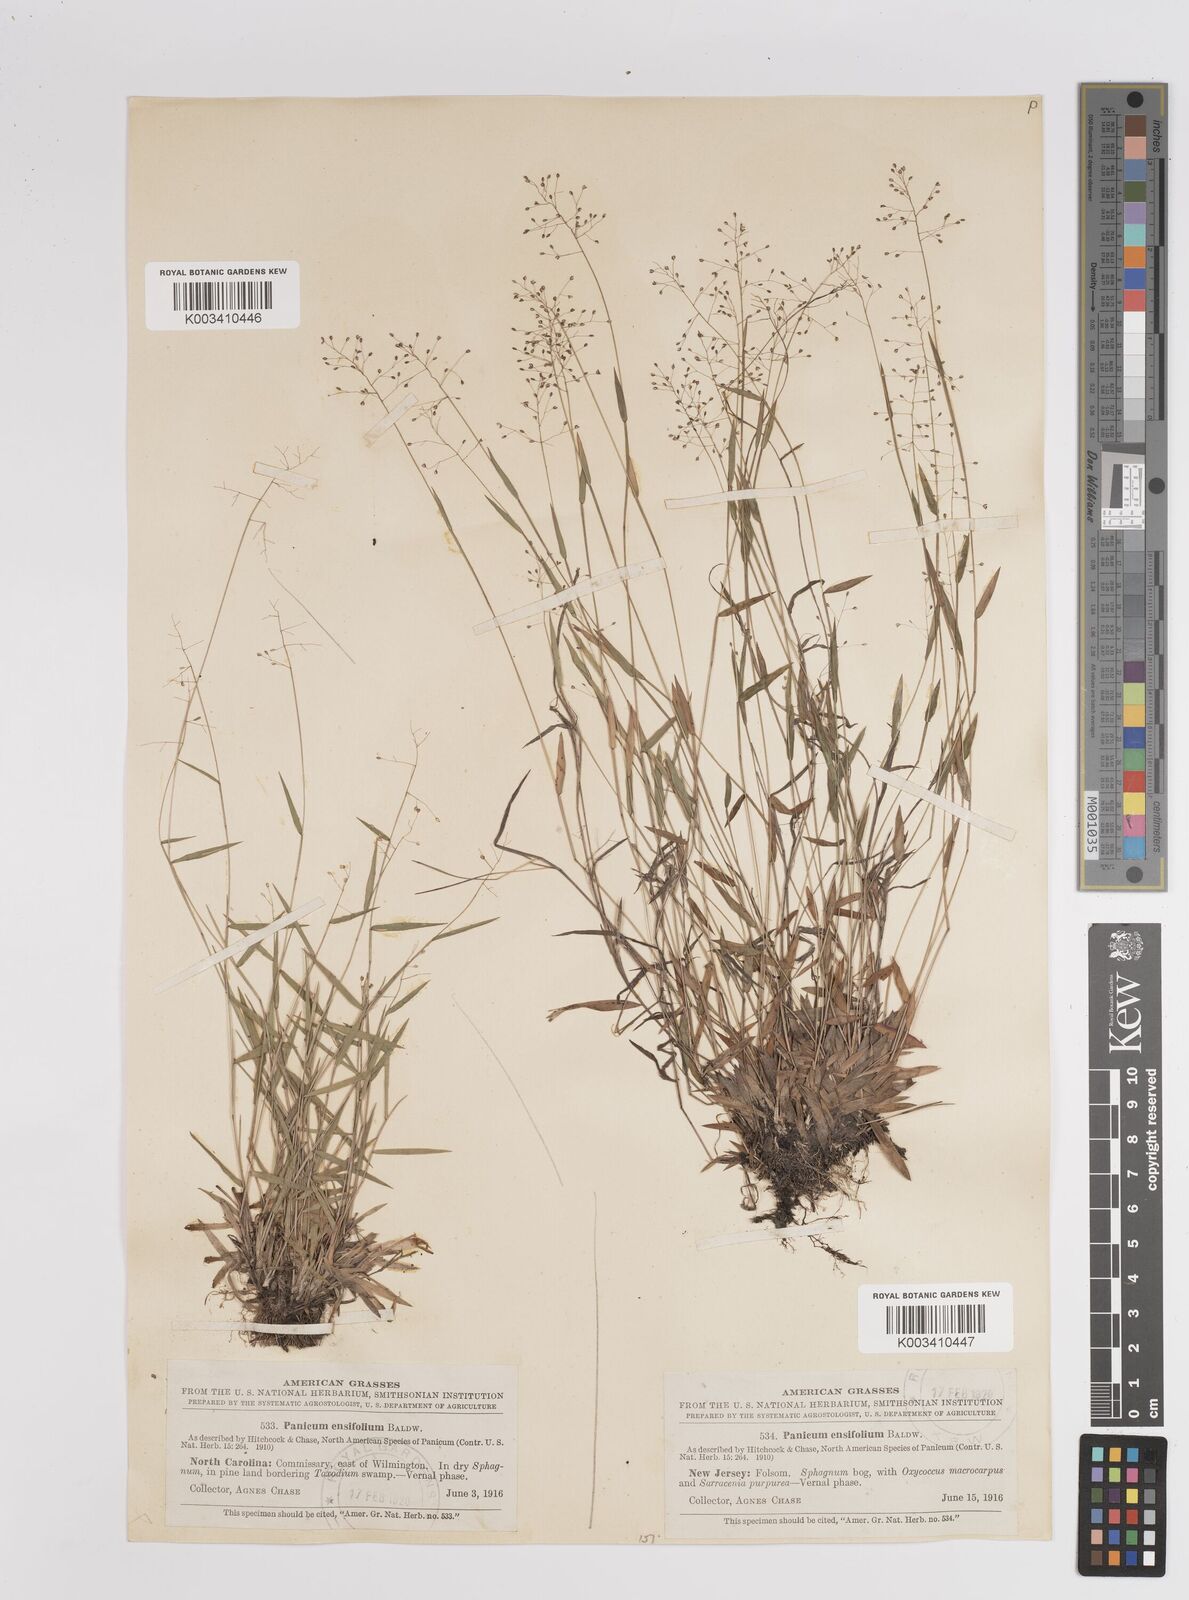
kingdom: Plantae
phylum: Tracheophyta
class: Liliopsida
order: Poales
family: Poaceae
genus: Dichanthelium
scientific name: Dichanthelium ensifolium
